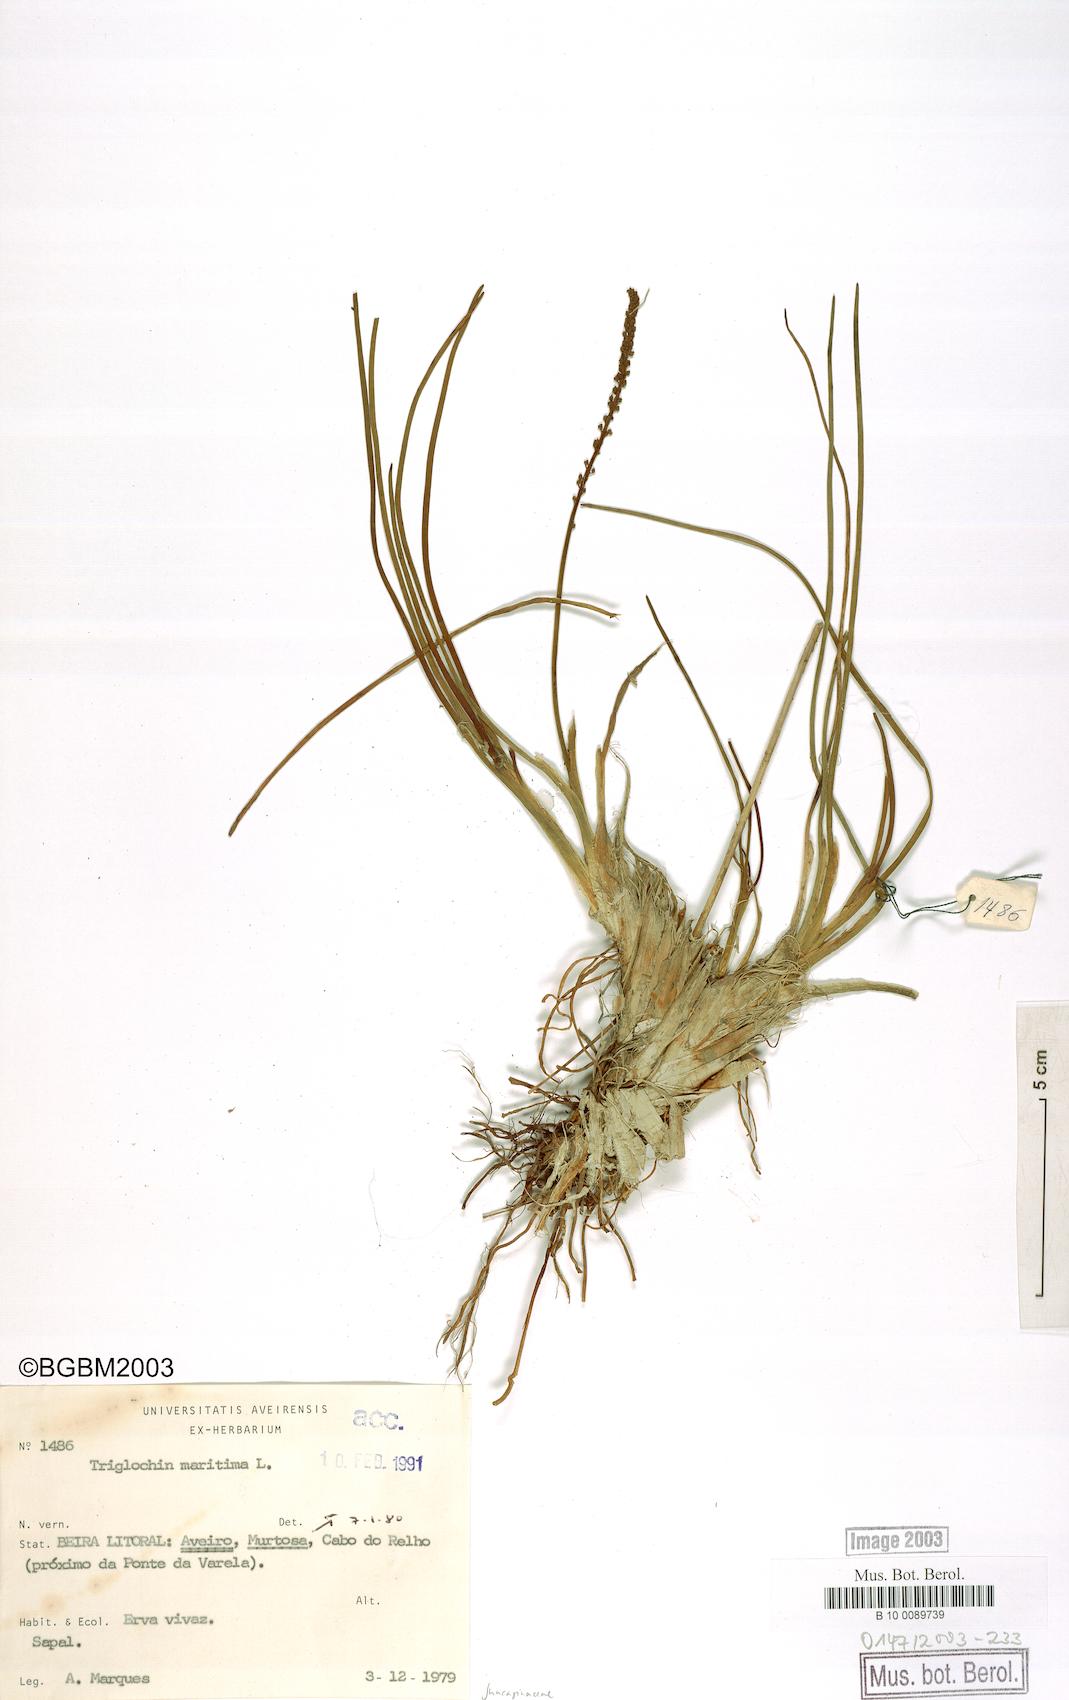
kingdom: Plantae
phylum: Tracheophyta
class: Liliopsida
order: Alismatales
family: Juncaginaceae
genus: Triglochin
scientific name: Triglochin maritima
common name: Sea arrowgrass
